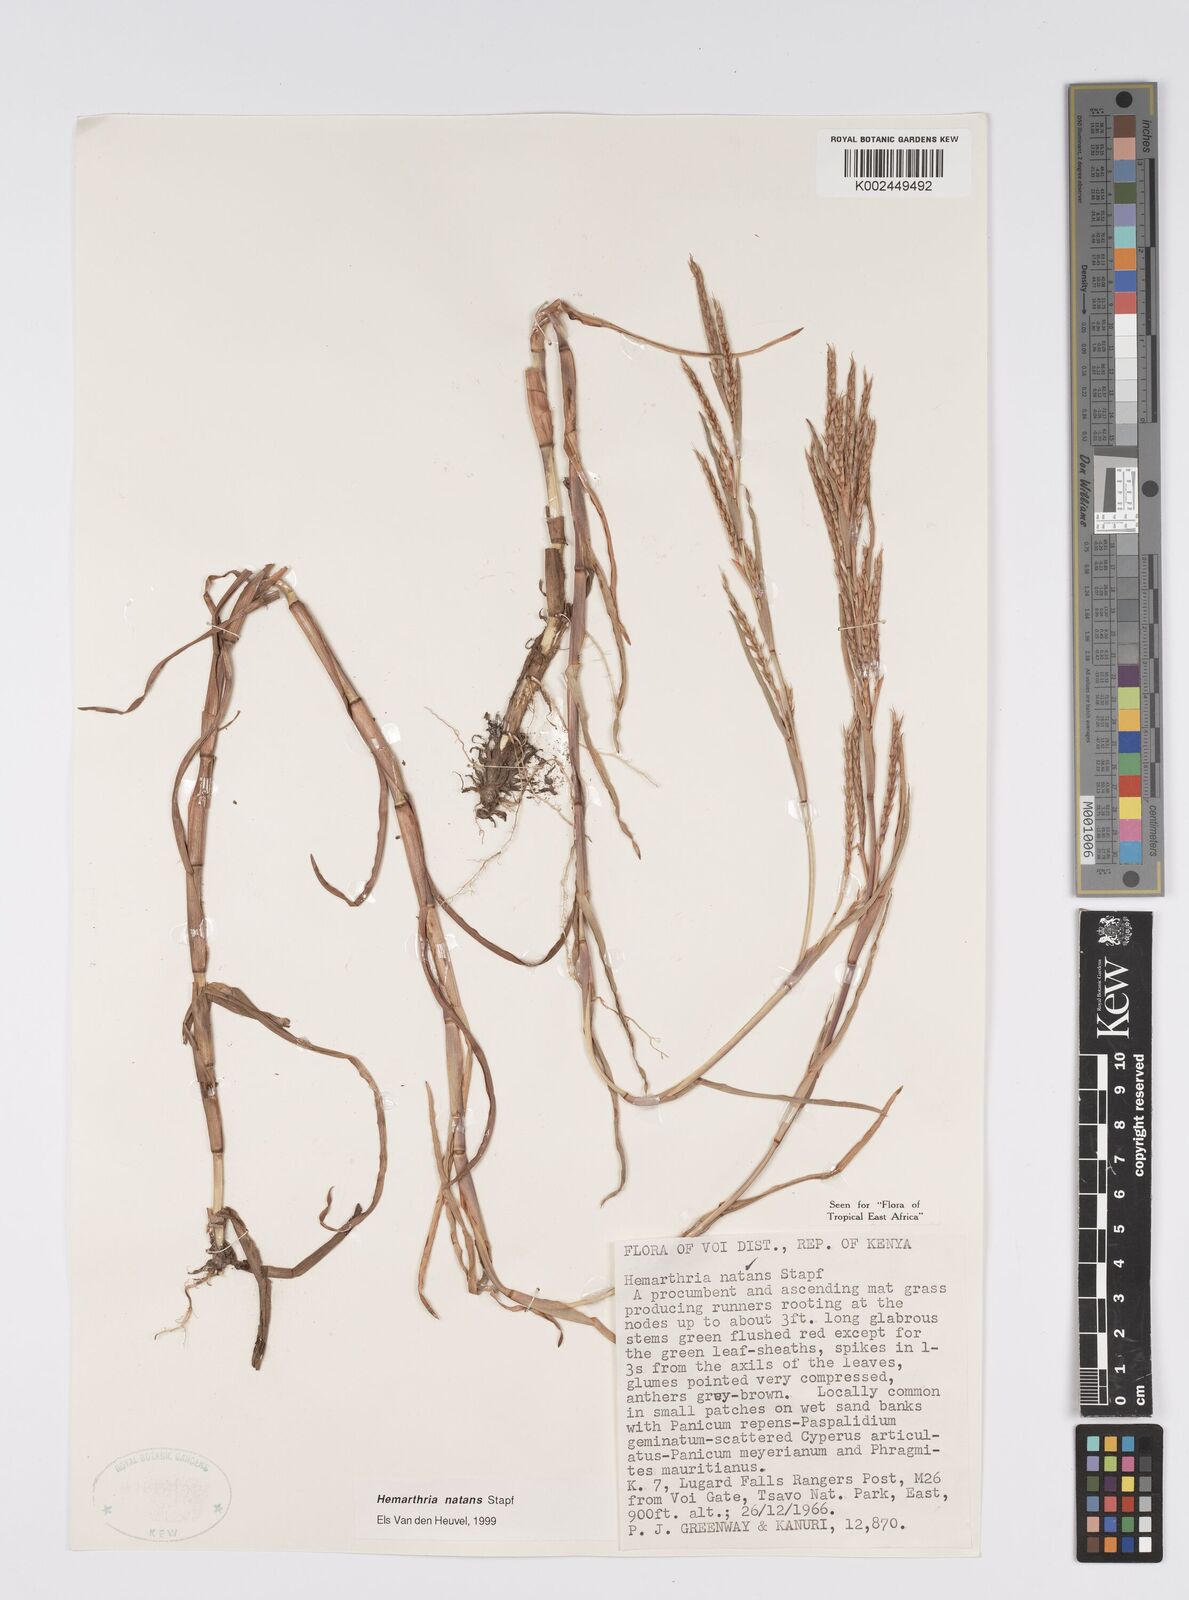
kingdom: Plantae
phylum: Tracheophyta
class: Liliopsida
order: Poales
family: Poaceae
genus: Hemarthria
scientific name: Hemarthria natans
